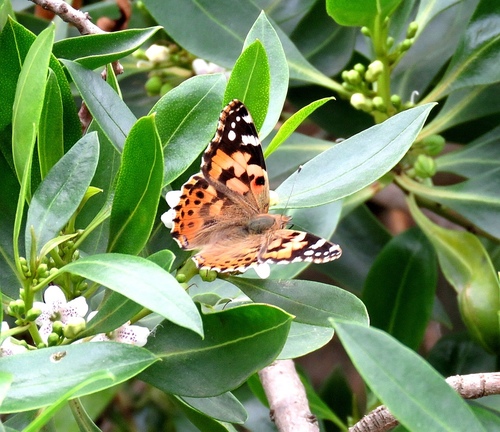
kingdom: Animalia
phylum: Arthropoda
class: Insecta
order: Lepidoptera
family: Nymphalidae
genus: Vanessa
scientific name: Vanessa cardui
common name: Painted lady
